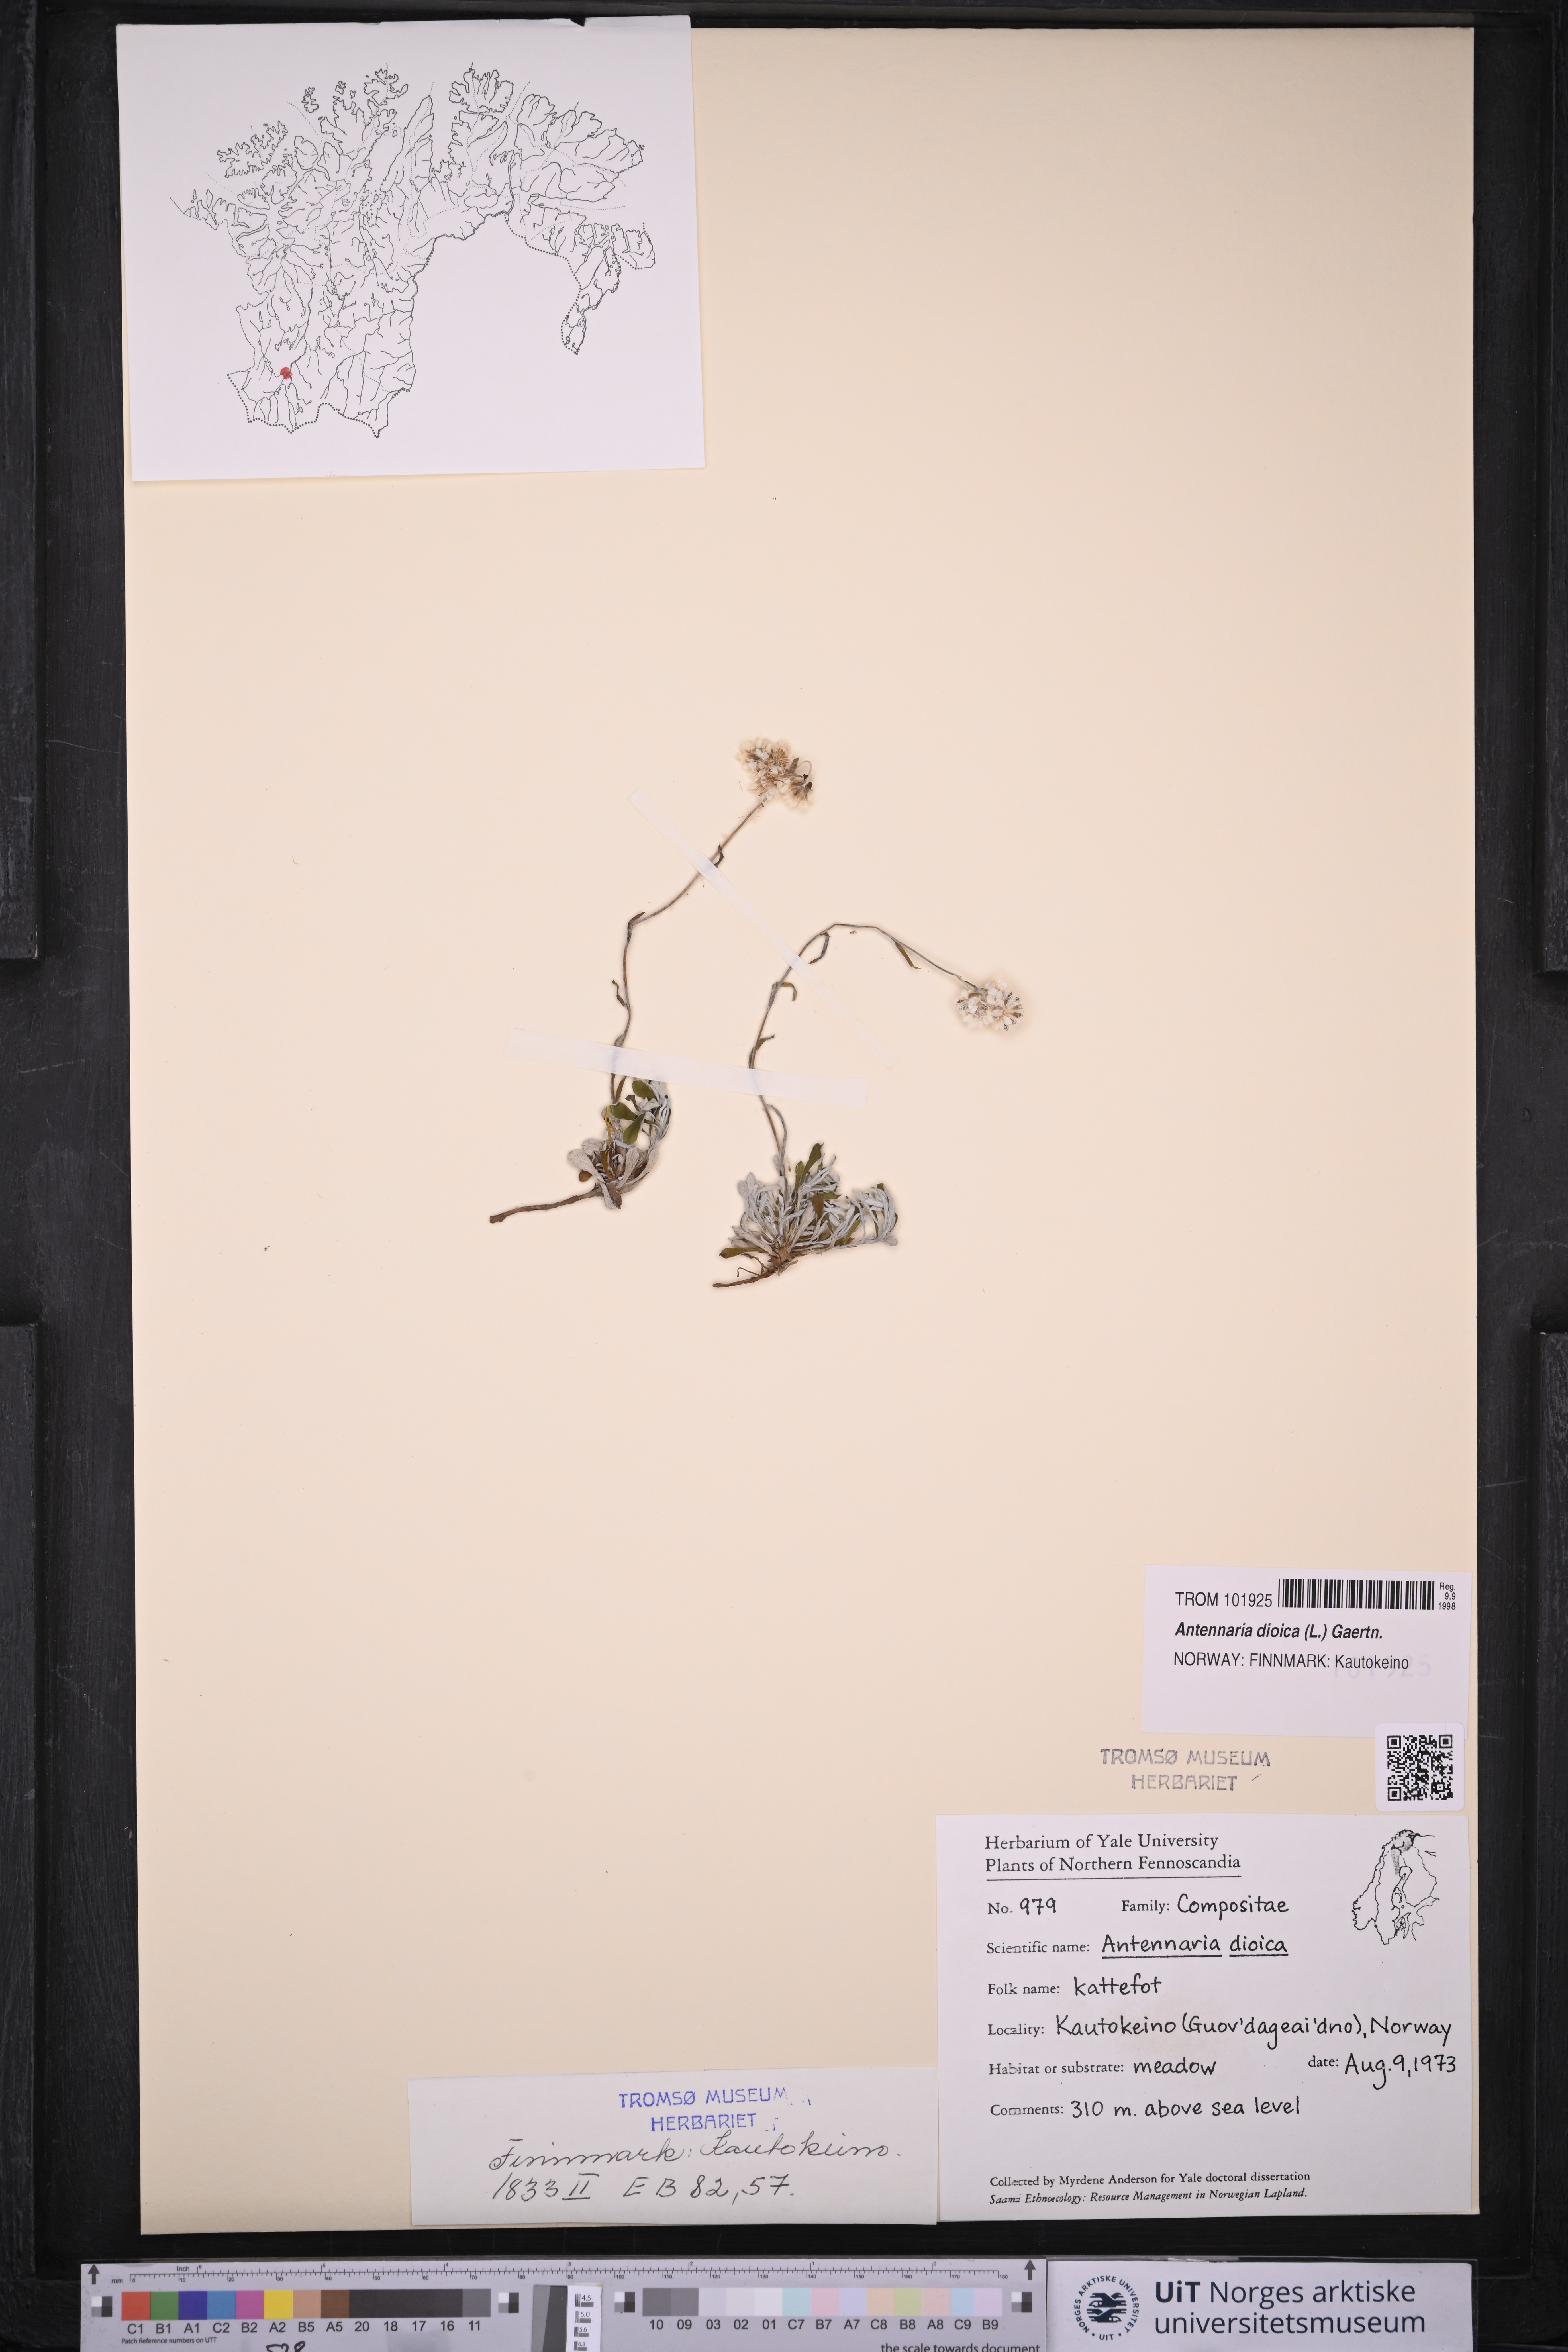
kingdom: Plantae
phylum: Tracheophyta
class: Magnoliopsida
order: Asterales
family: Asteraceae
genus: Antennaria
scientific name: Antennaria dioica
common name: Mountain everlasting
